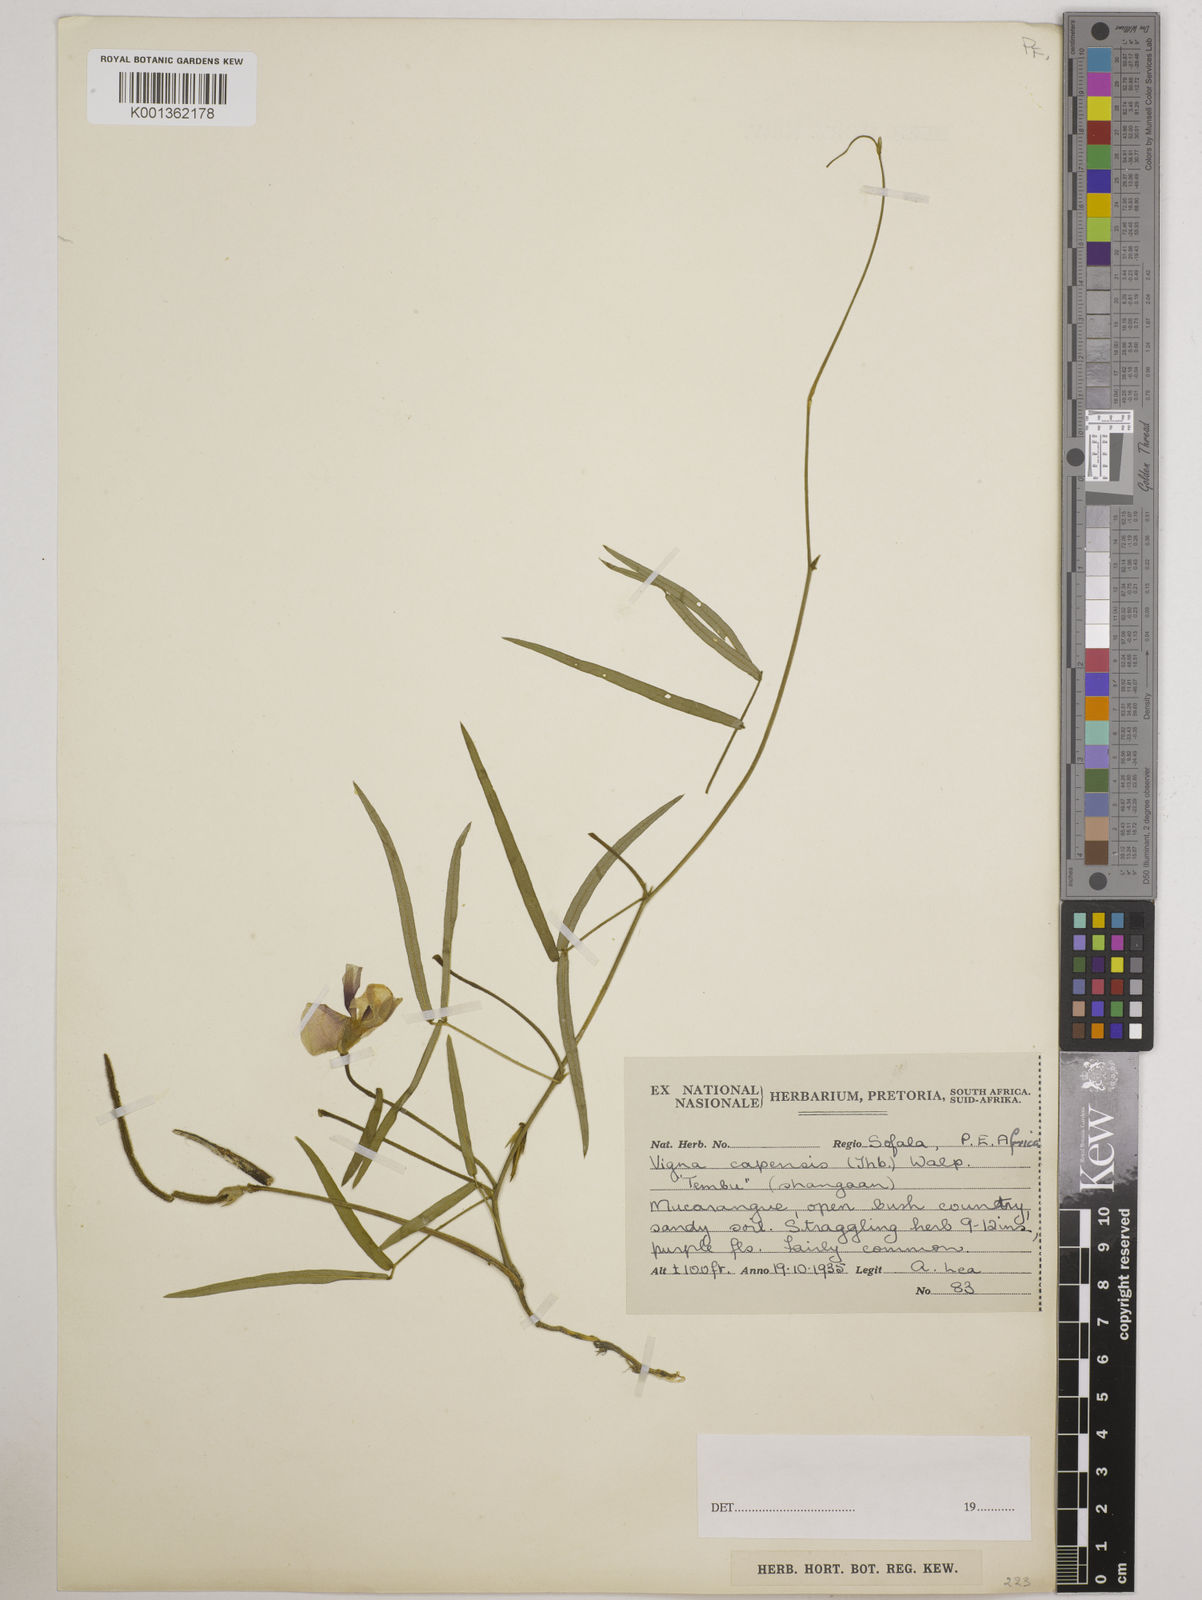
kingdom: Plantae
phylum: Tracheophyta
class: Magnoliopsida
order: Fabales
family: Fabaceae
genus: Vigna
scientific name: Vigna vexillata
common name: Zombi pea
